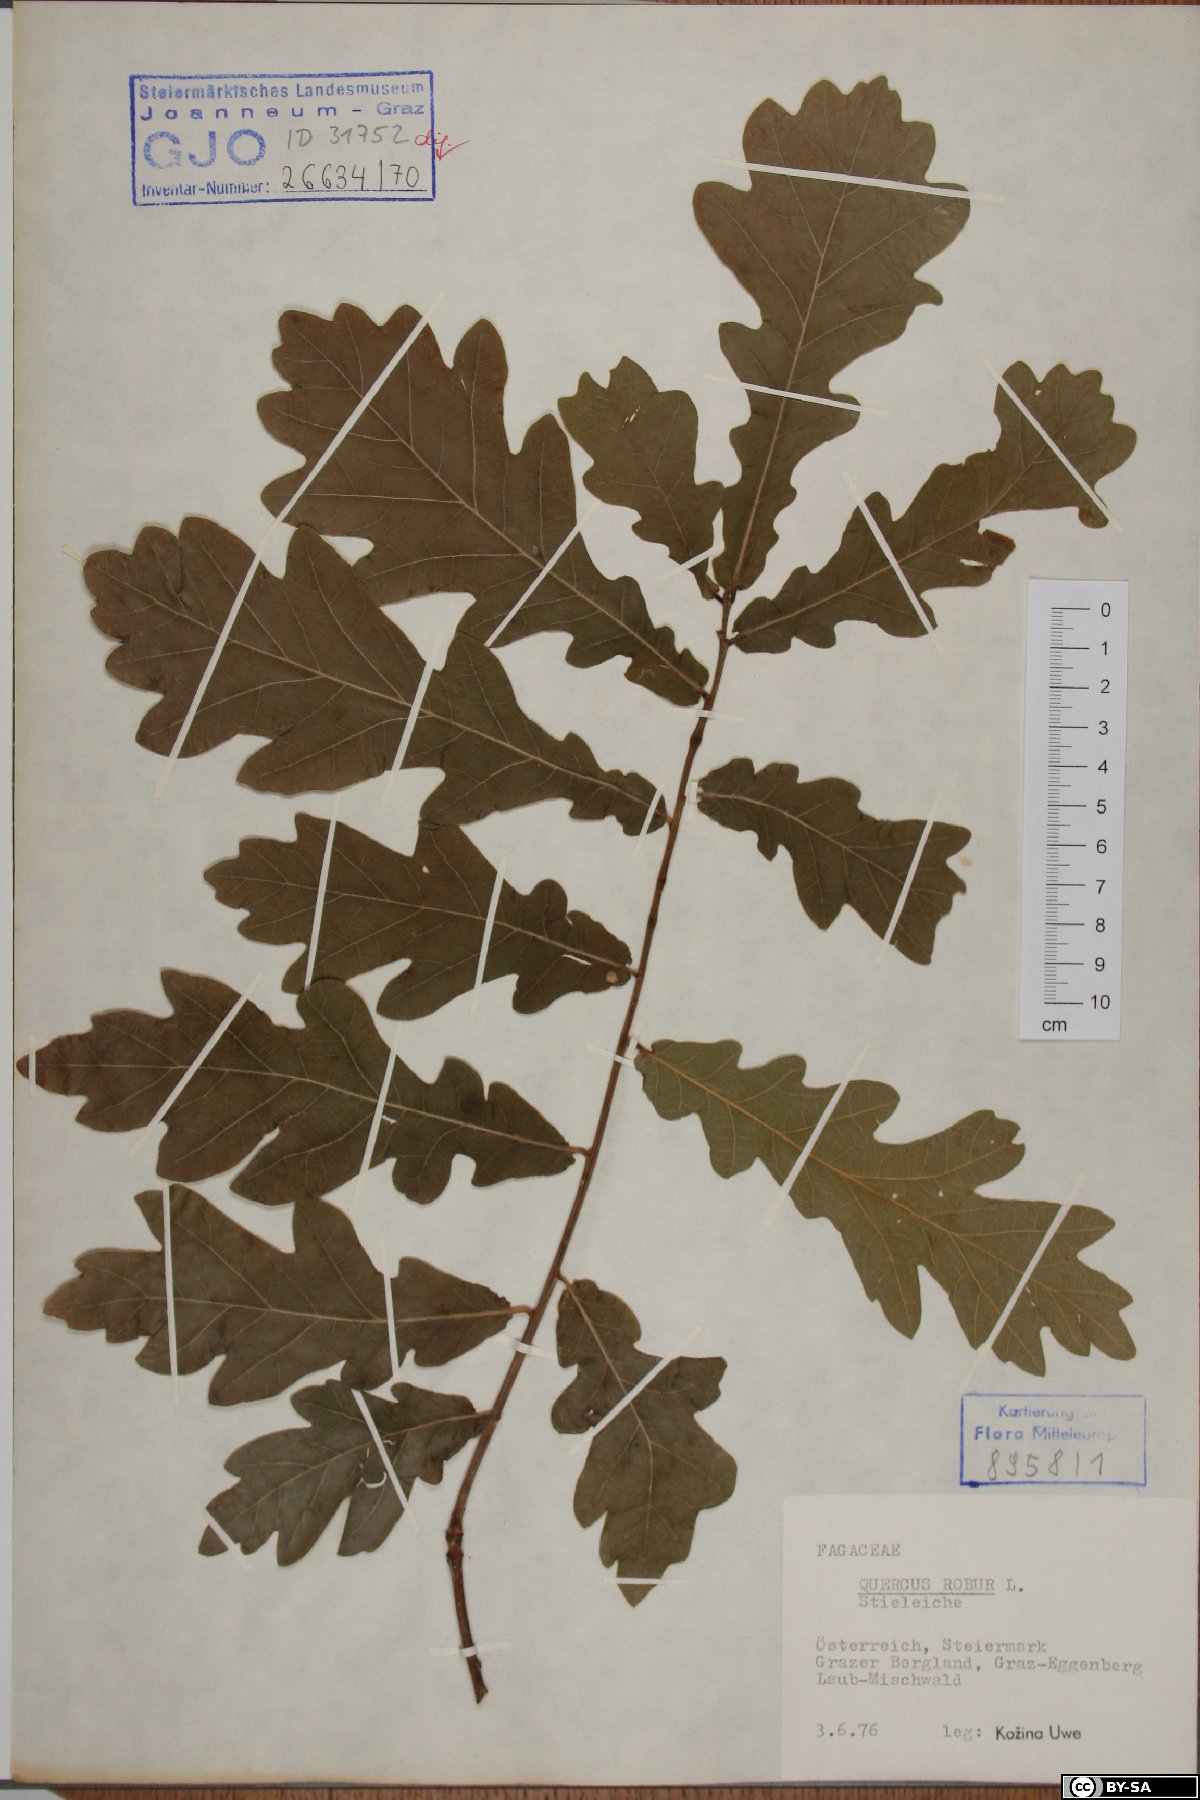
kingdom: Plantae
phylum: Tracheophyta
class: Magnoliopsida
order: Fagales
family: Fagaceae
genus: Quercus
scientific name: Quercus robur
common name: Pedunculate oak
